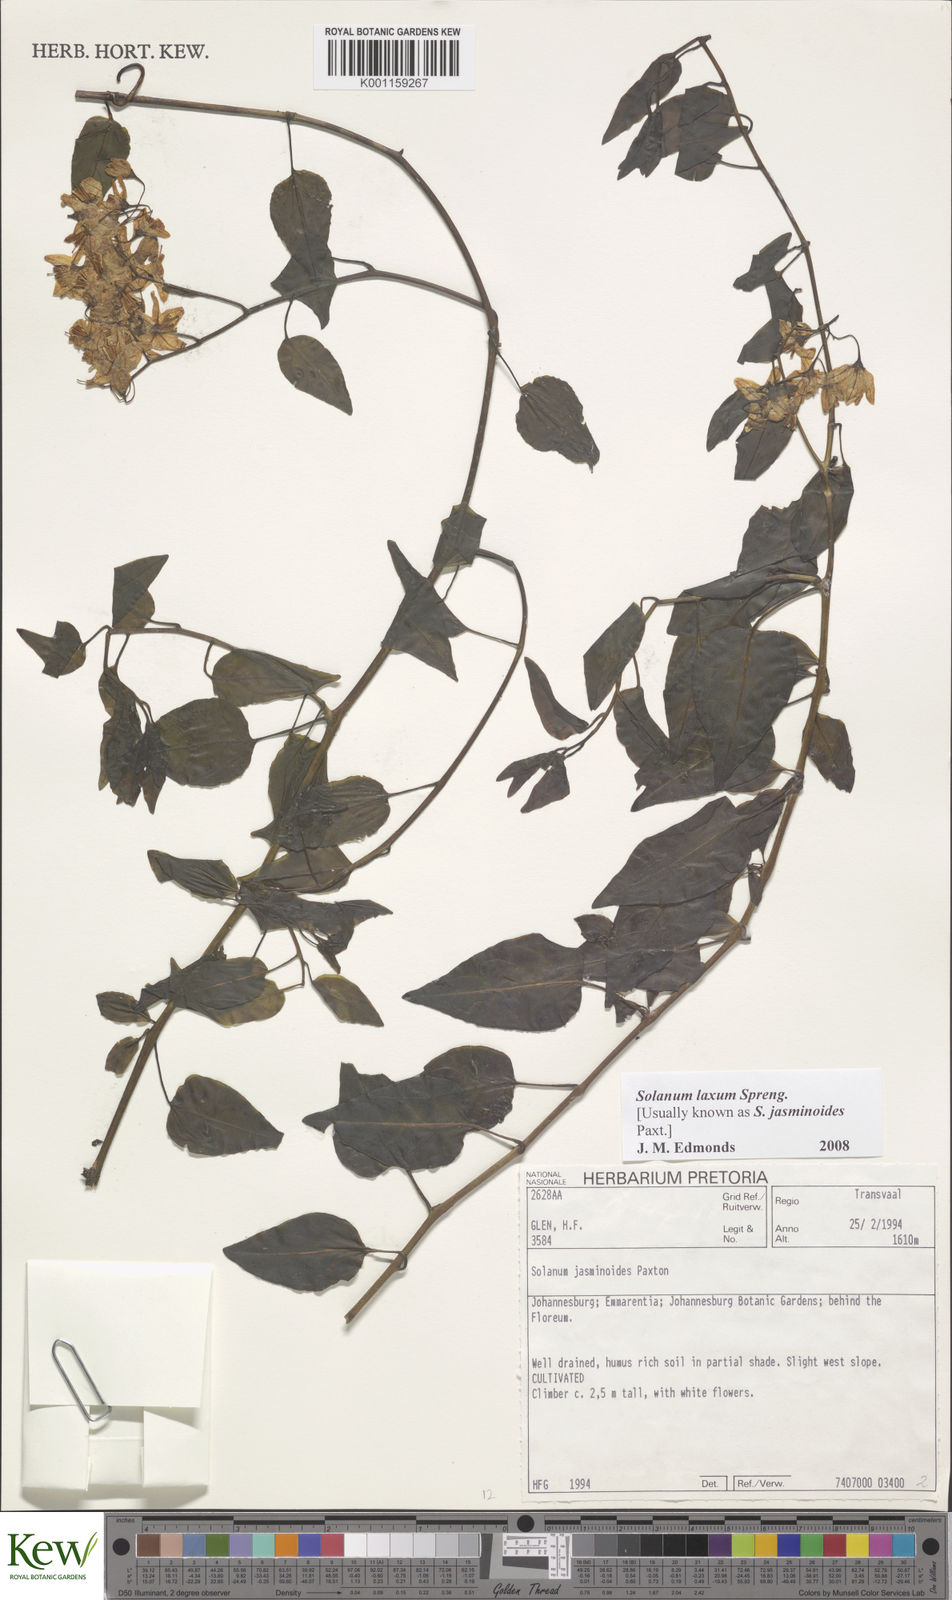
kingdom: Plantae
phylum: Tracheophyta
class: Magnoliopsida
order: Solanales
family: Solanaceae
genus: Solanum
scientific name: Solanum laxum
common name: Nightshade
